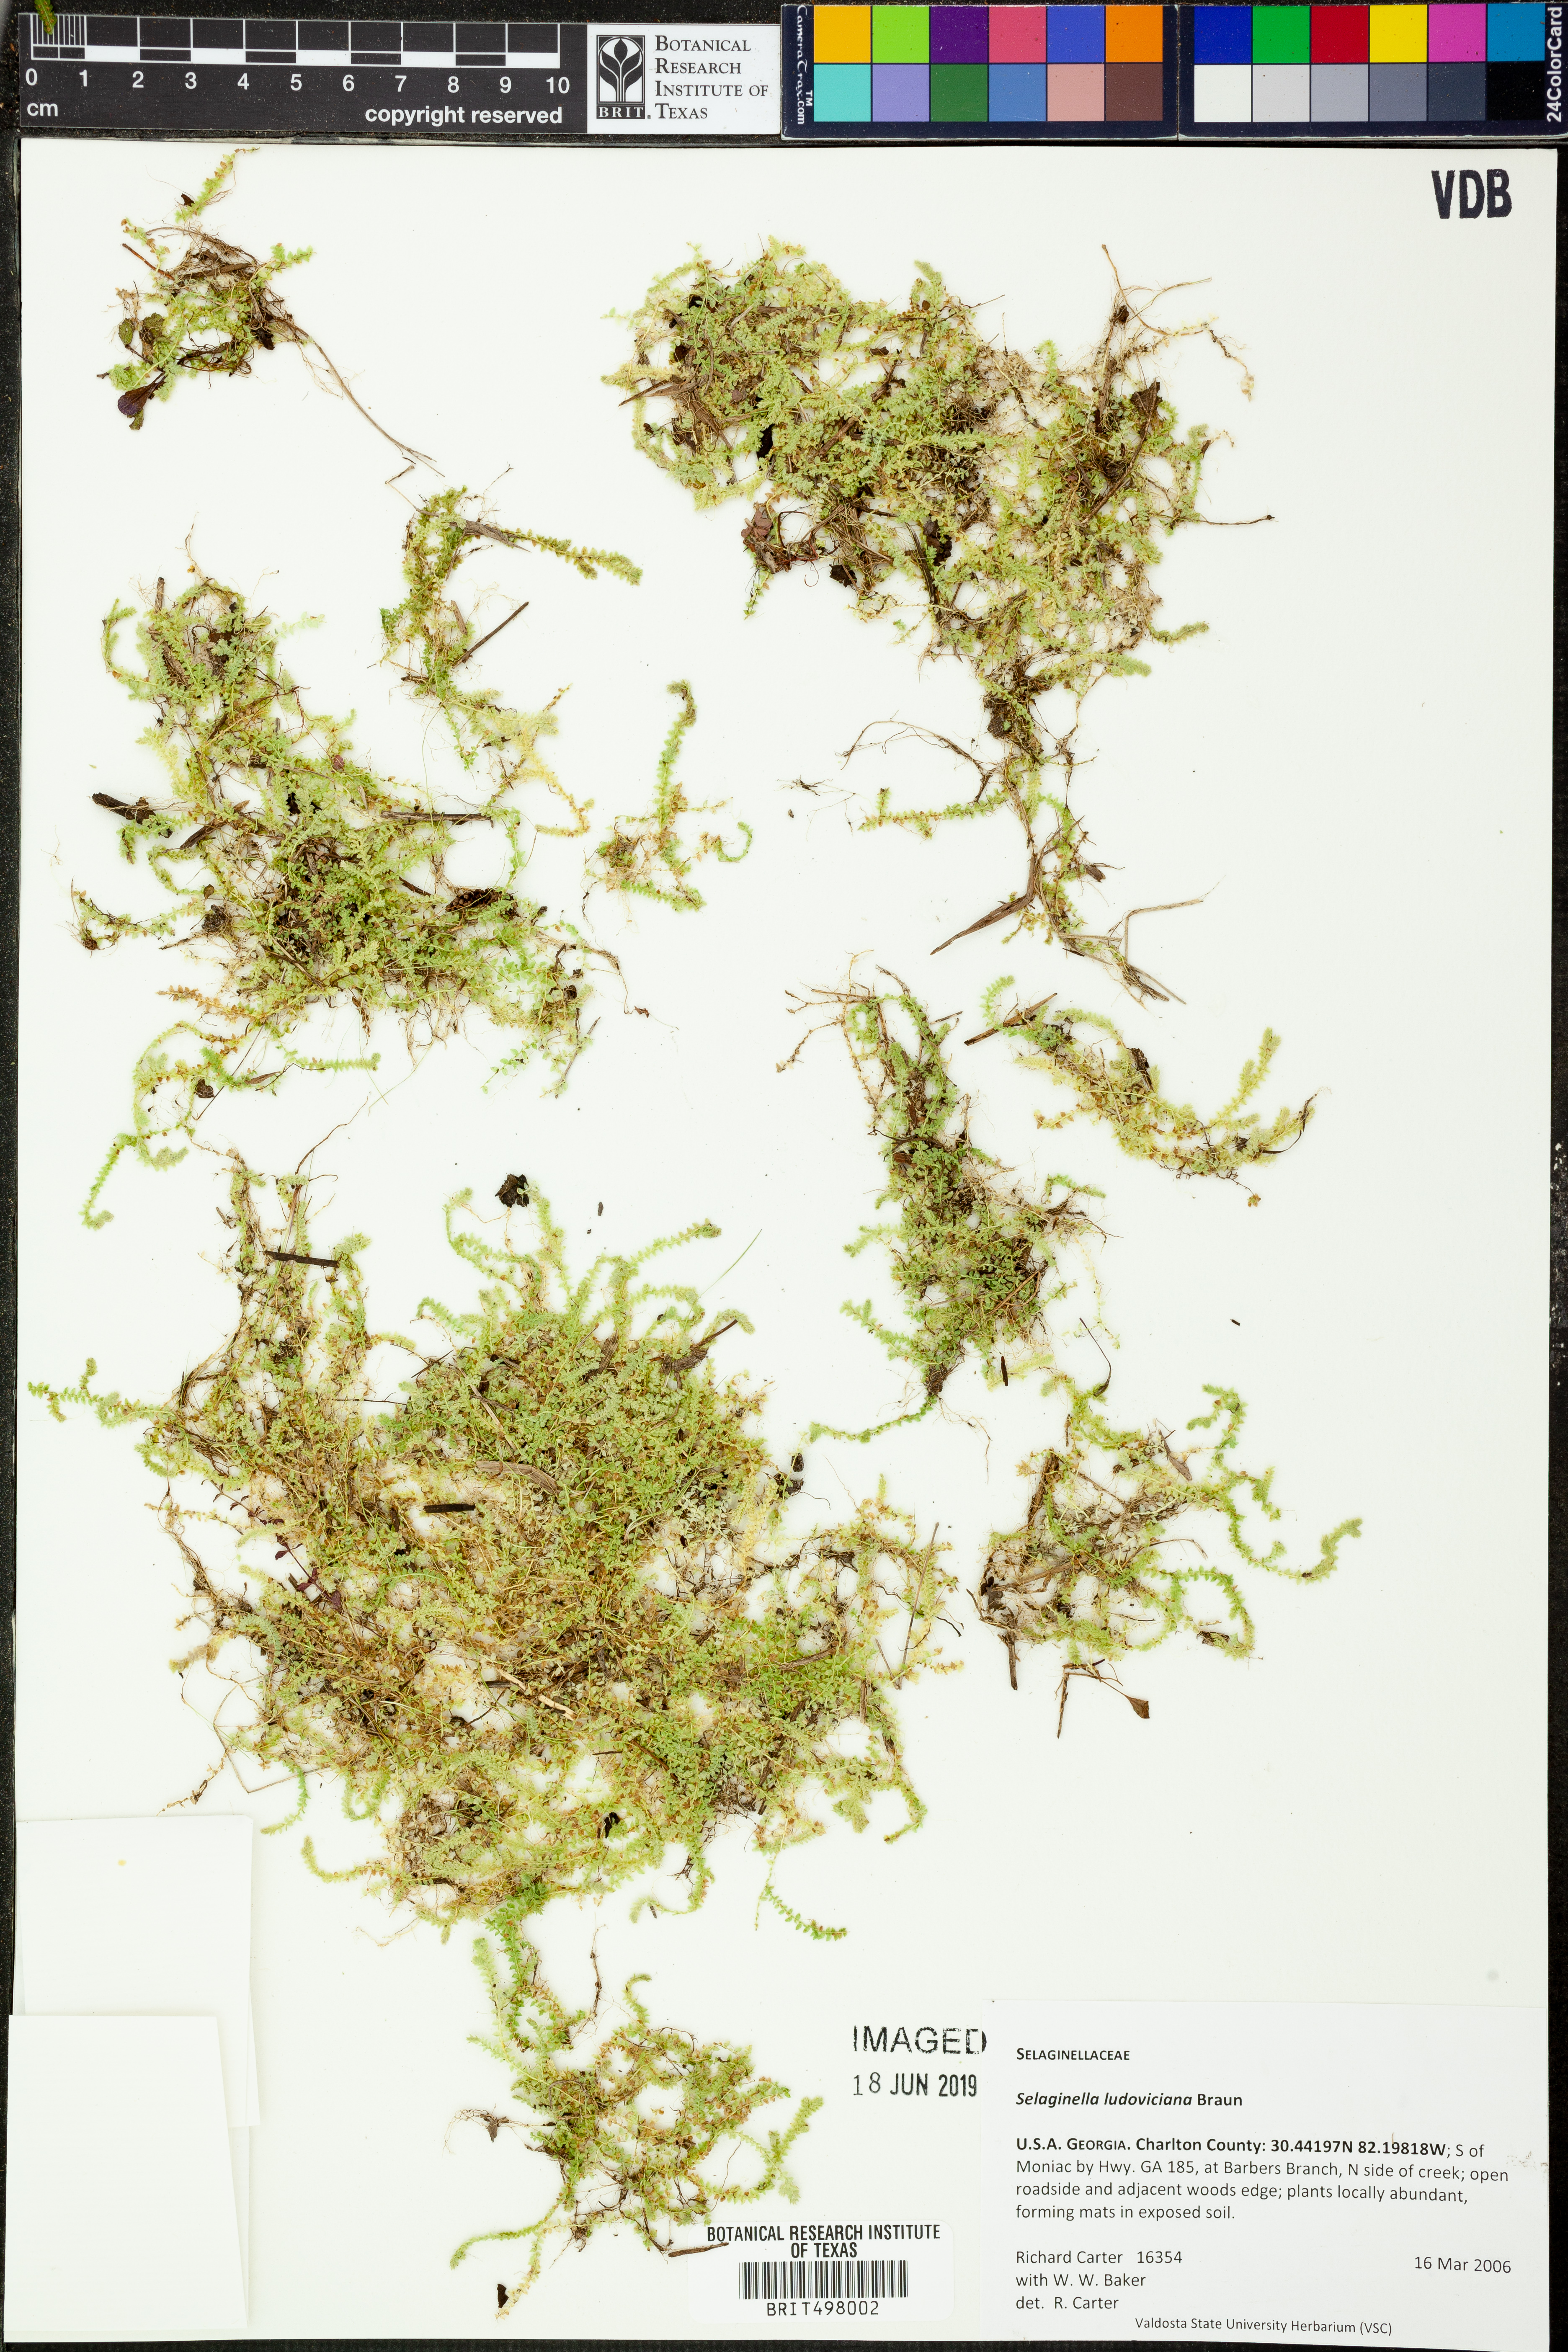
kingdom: Plantae
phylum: Tracheophyta
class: Lycopodiopsida
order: Selaginellales
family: Selaginellaceae
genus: Selaginella
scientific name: Selaginella ludoviciana
